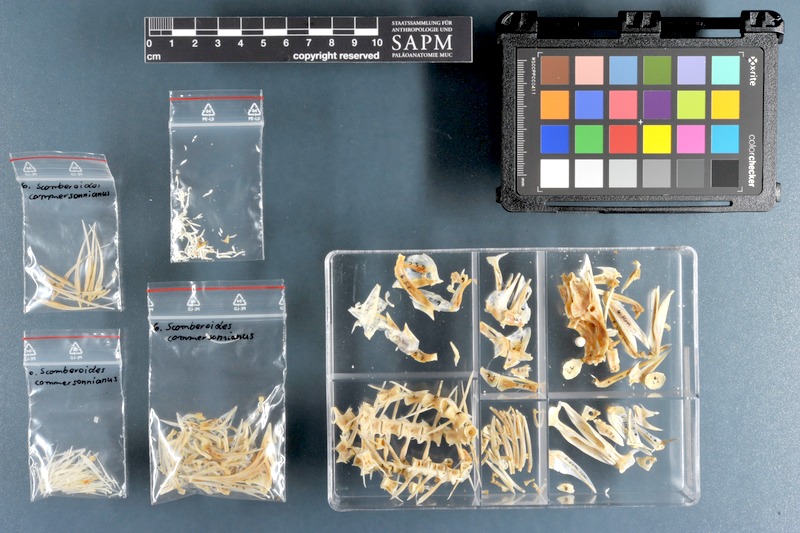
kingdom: Animalia
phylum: Chordata
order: Perciformes
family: Carangidae
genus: Scomberoides
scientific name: Scomberoides commersonnianus
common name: Talang queenfish
